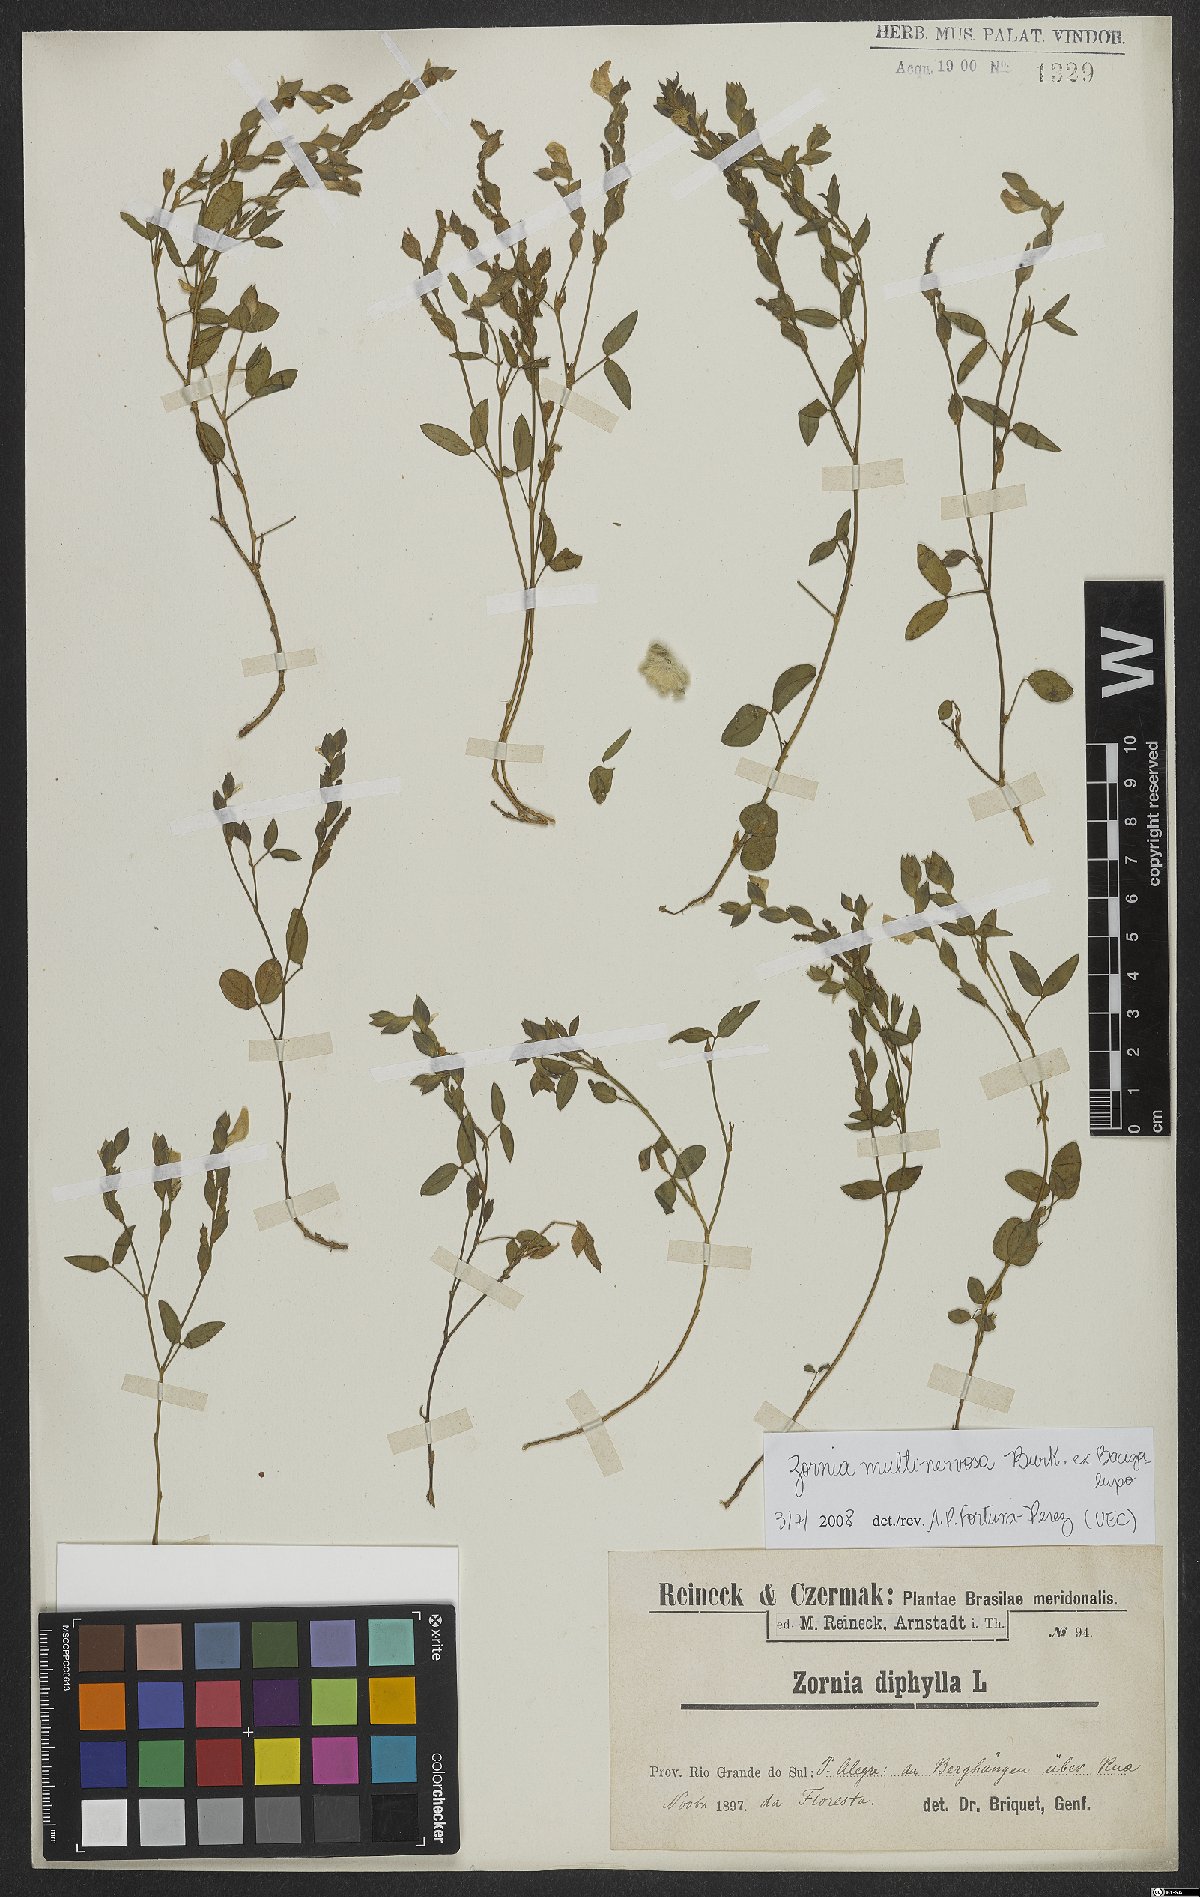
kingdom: Plantae
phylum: Tracheophyta
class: Magnoliopsida
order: Fabales
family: Fabaceae
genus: Zornia
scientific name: Zornia multinervosa
